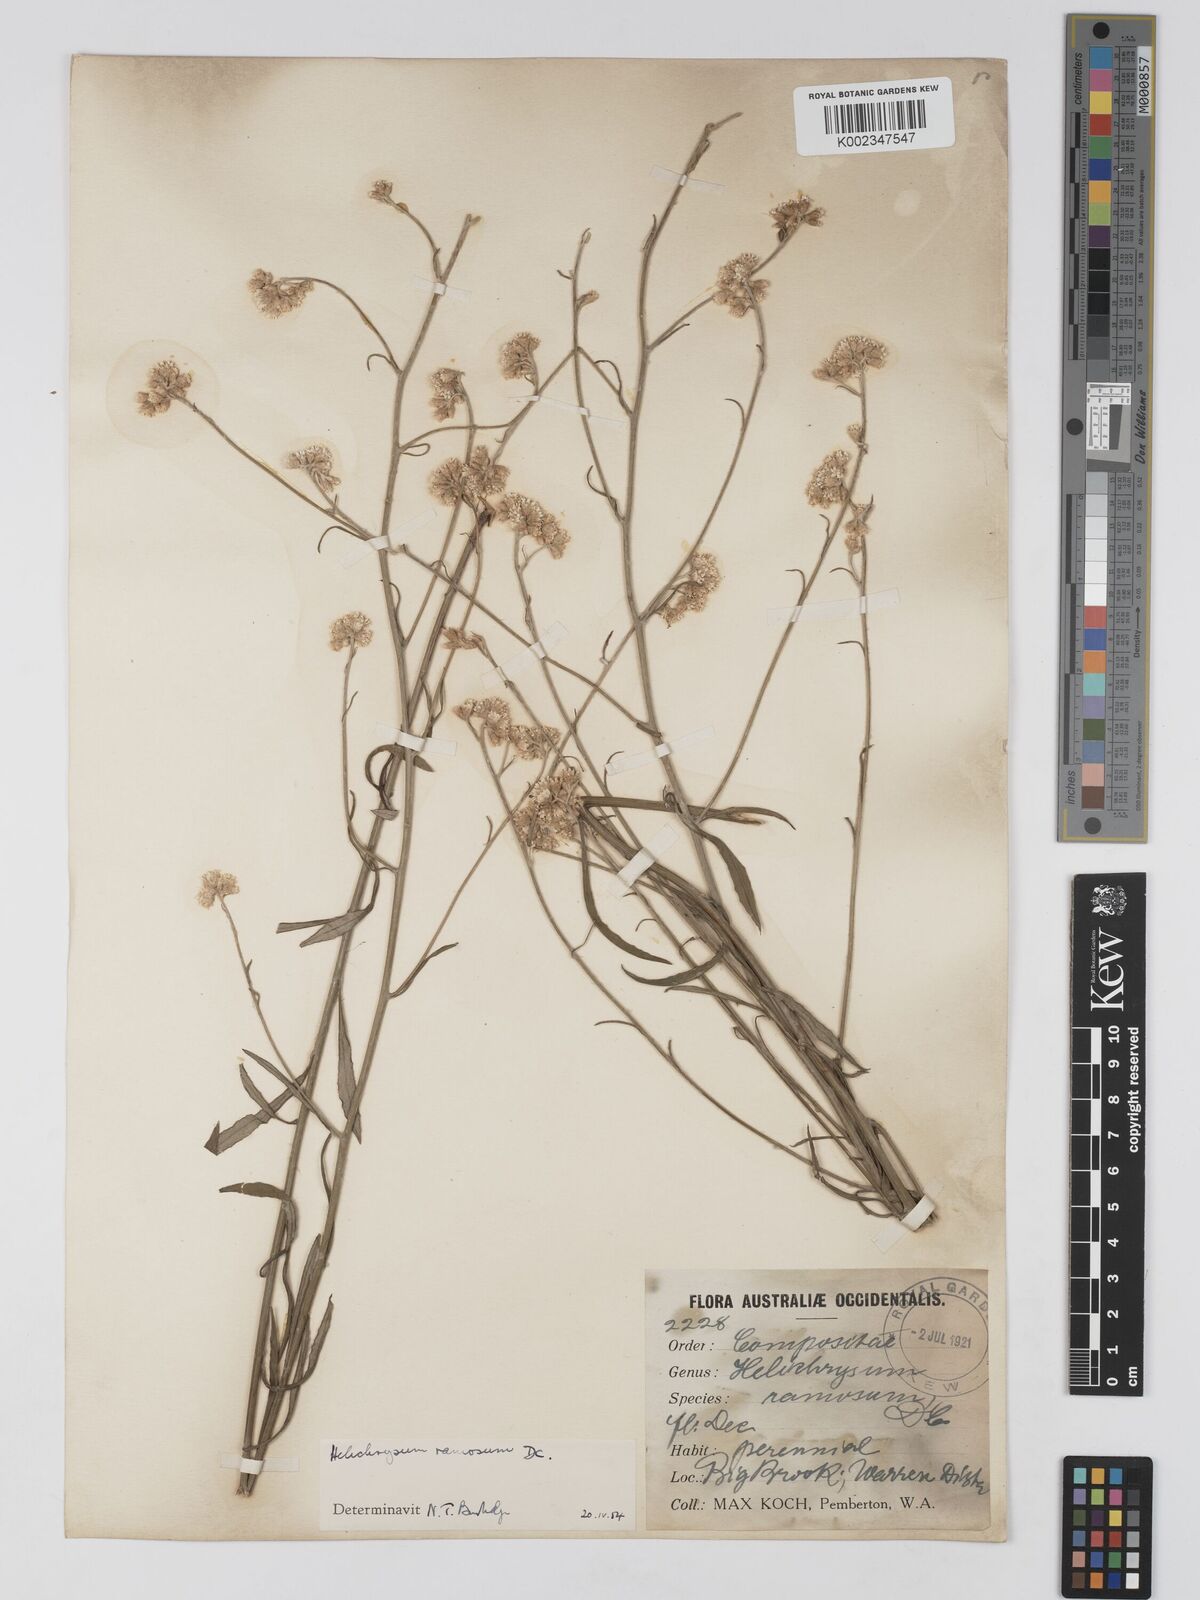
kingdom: Plantae
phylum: Tracheophyta
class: Magnoliopsida
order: Asterales
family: Asteraceae
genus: Pithocarpa
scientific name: Pithocarpa ramosa
